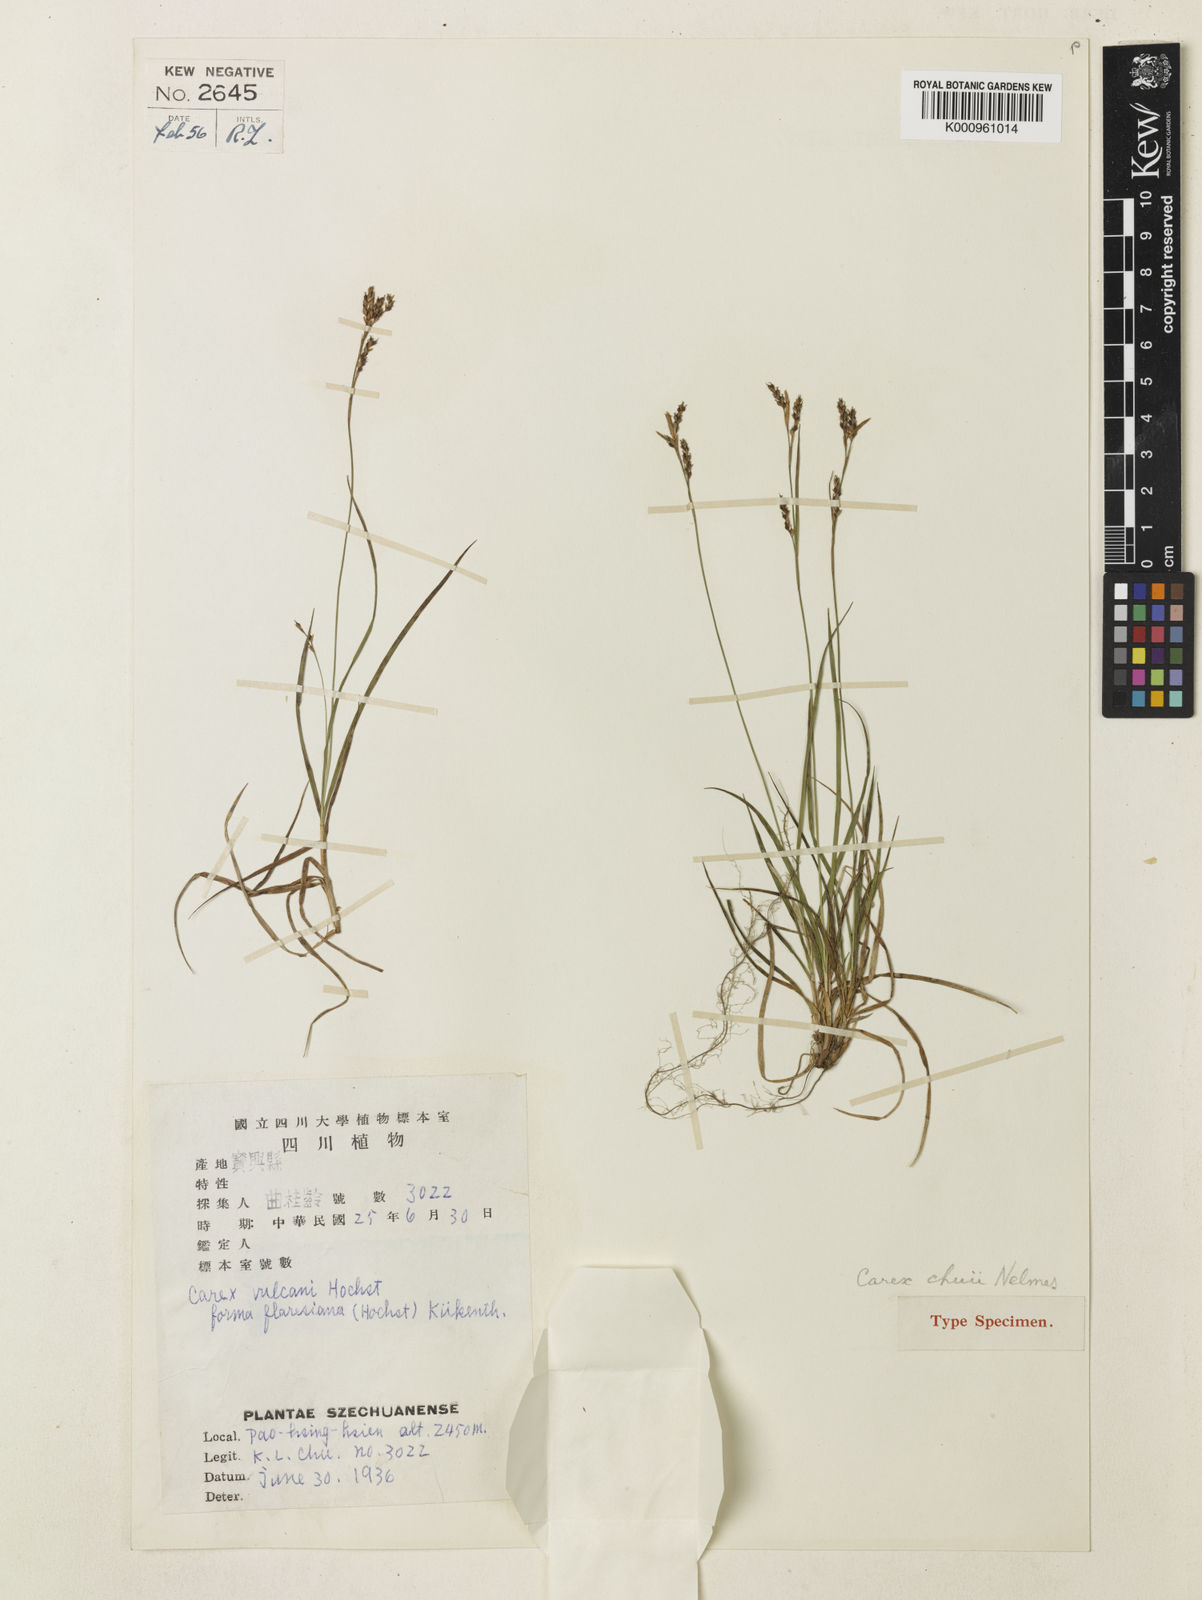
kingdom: Plantae
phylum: Tracheophyta
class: Liliopsida
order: Poales
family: Cyperaceae
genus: Carex
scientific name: Carex chuii
